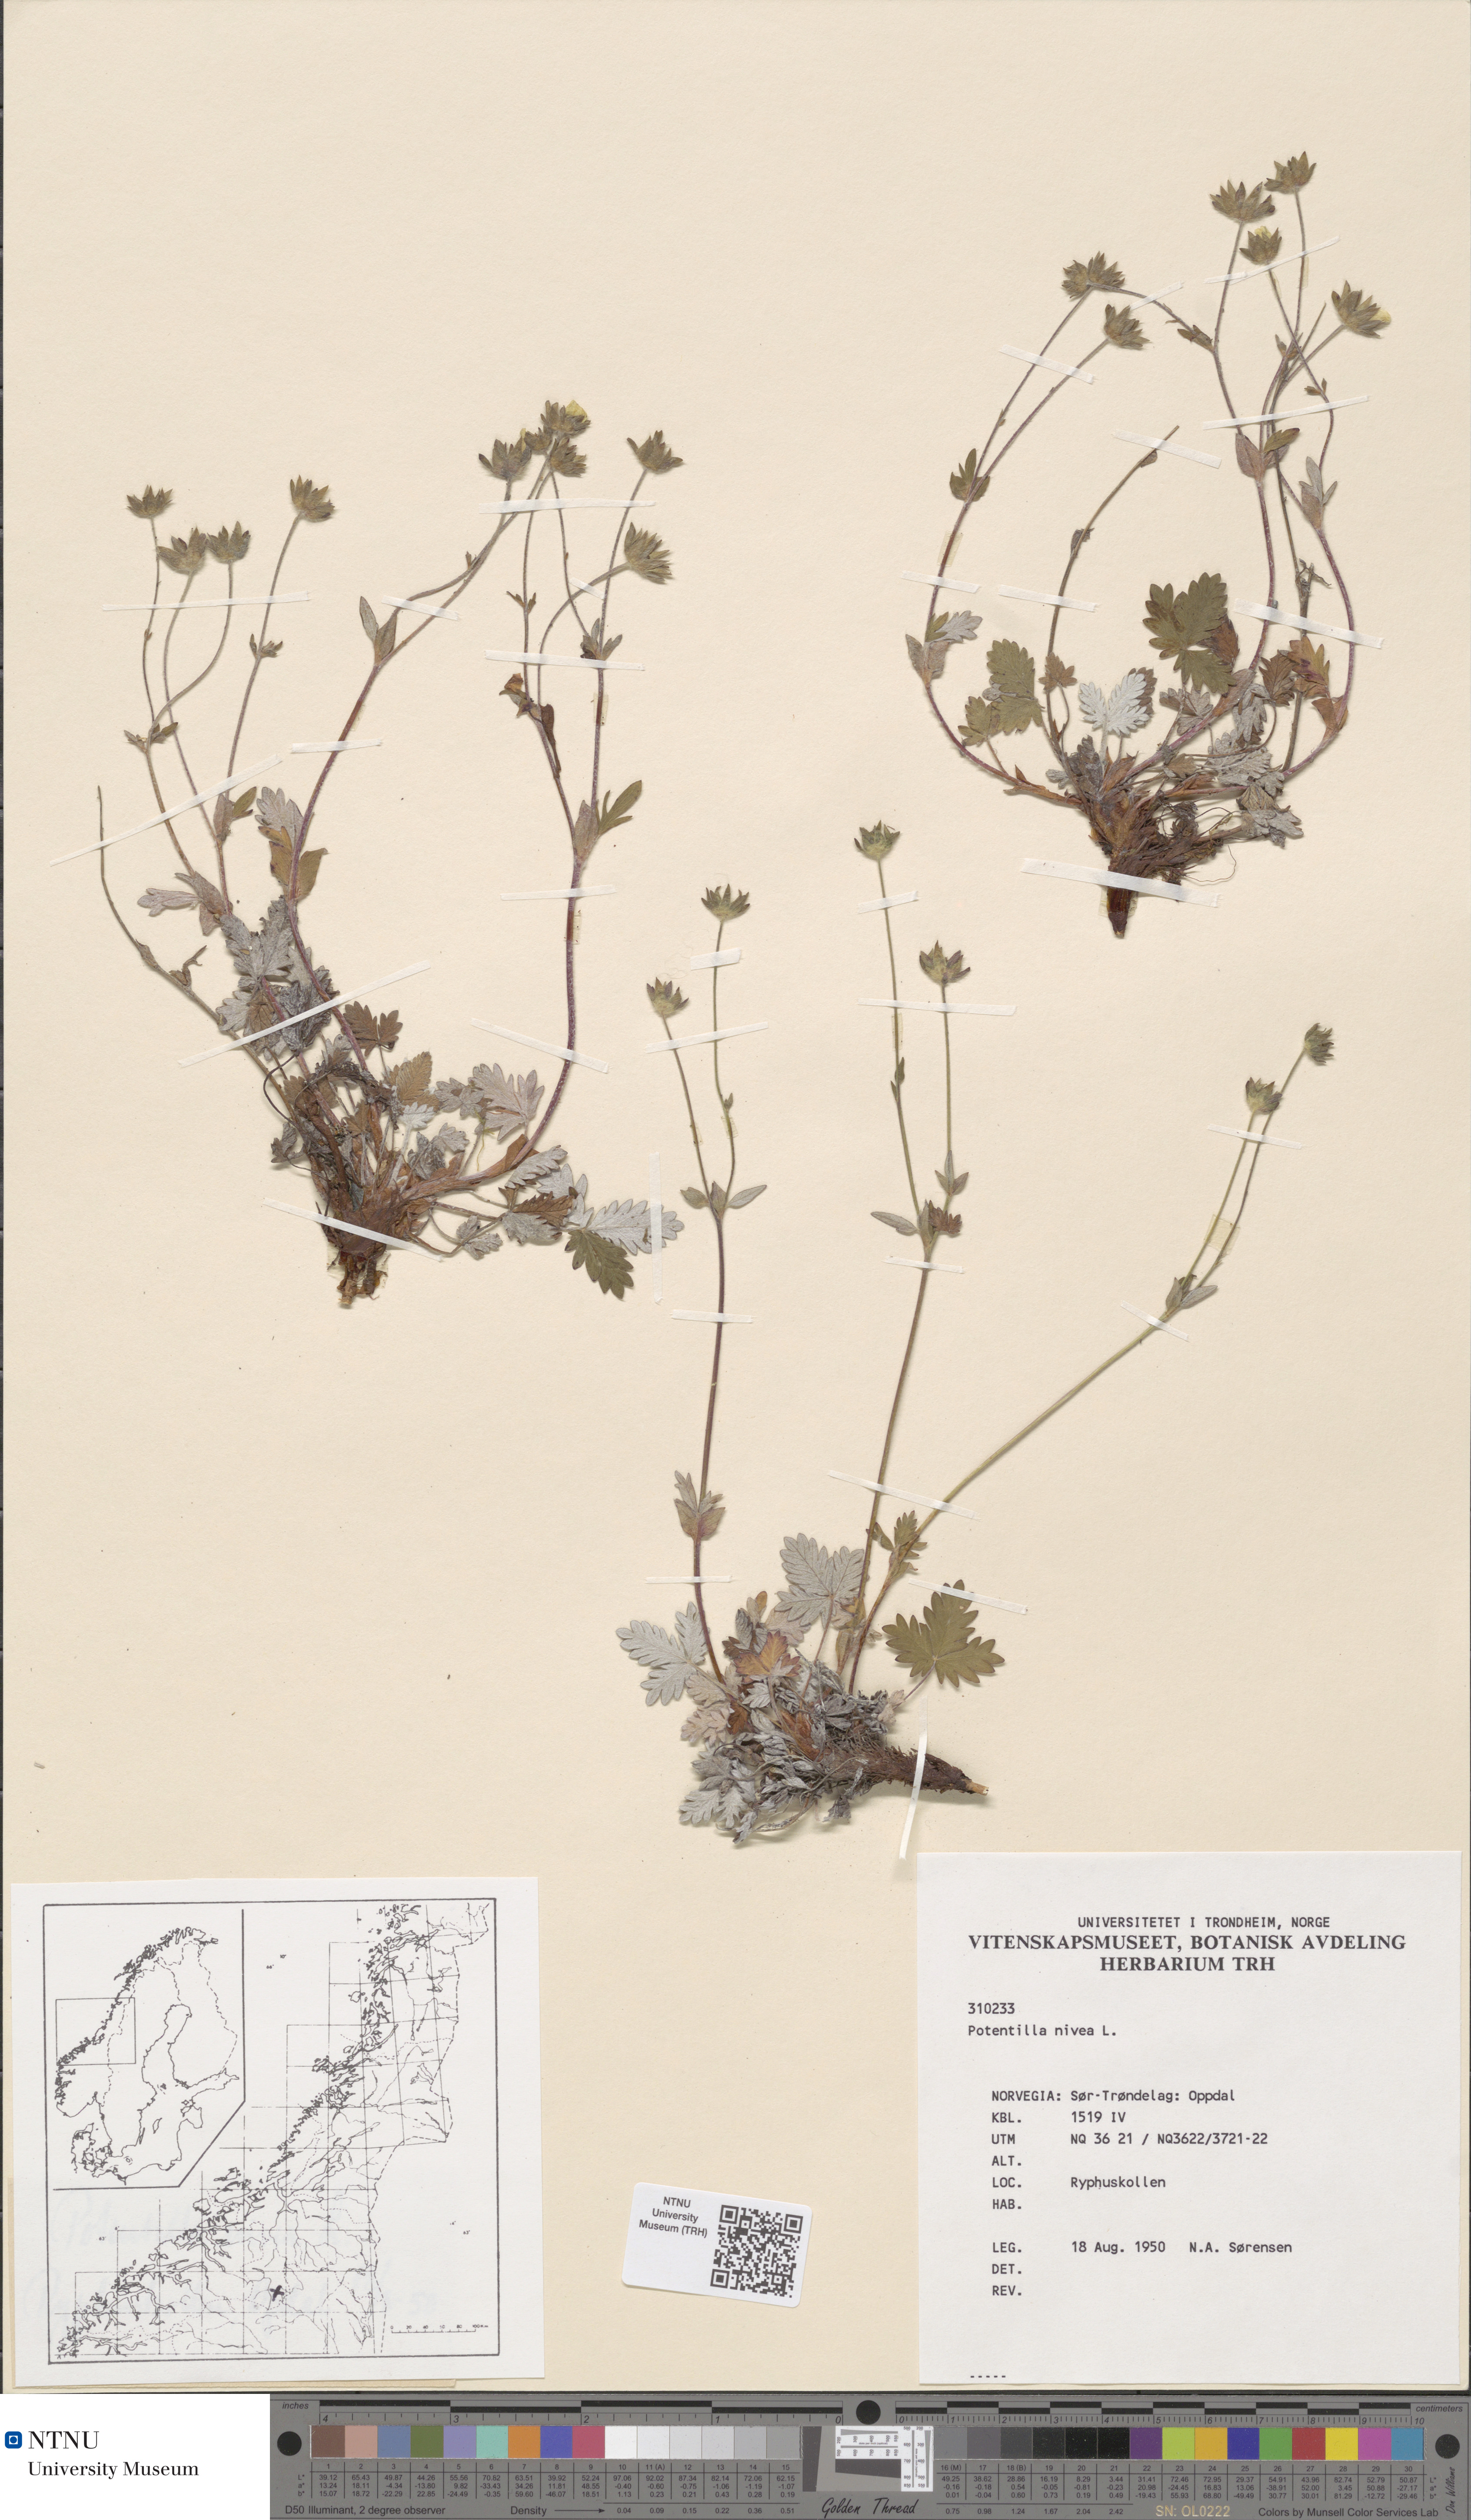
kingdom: Plantae
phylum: Tracheophyta
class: Magnoliopsida
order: Rosales
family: Rosaceae
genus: Potentilla
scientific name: Potentilla nivea
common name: Snow cinquefoil
